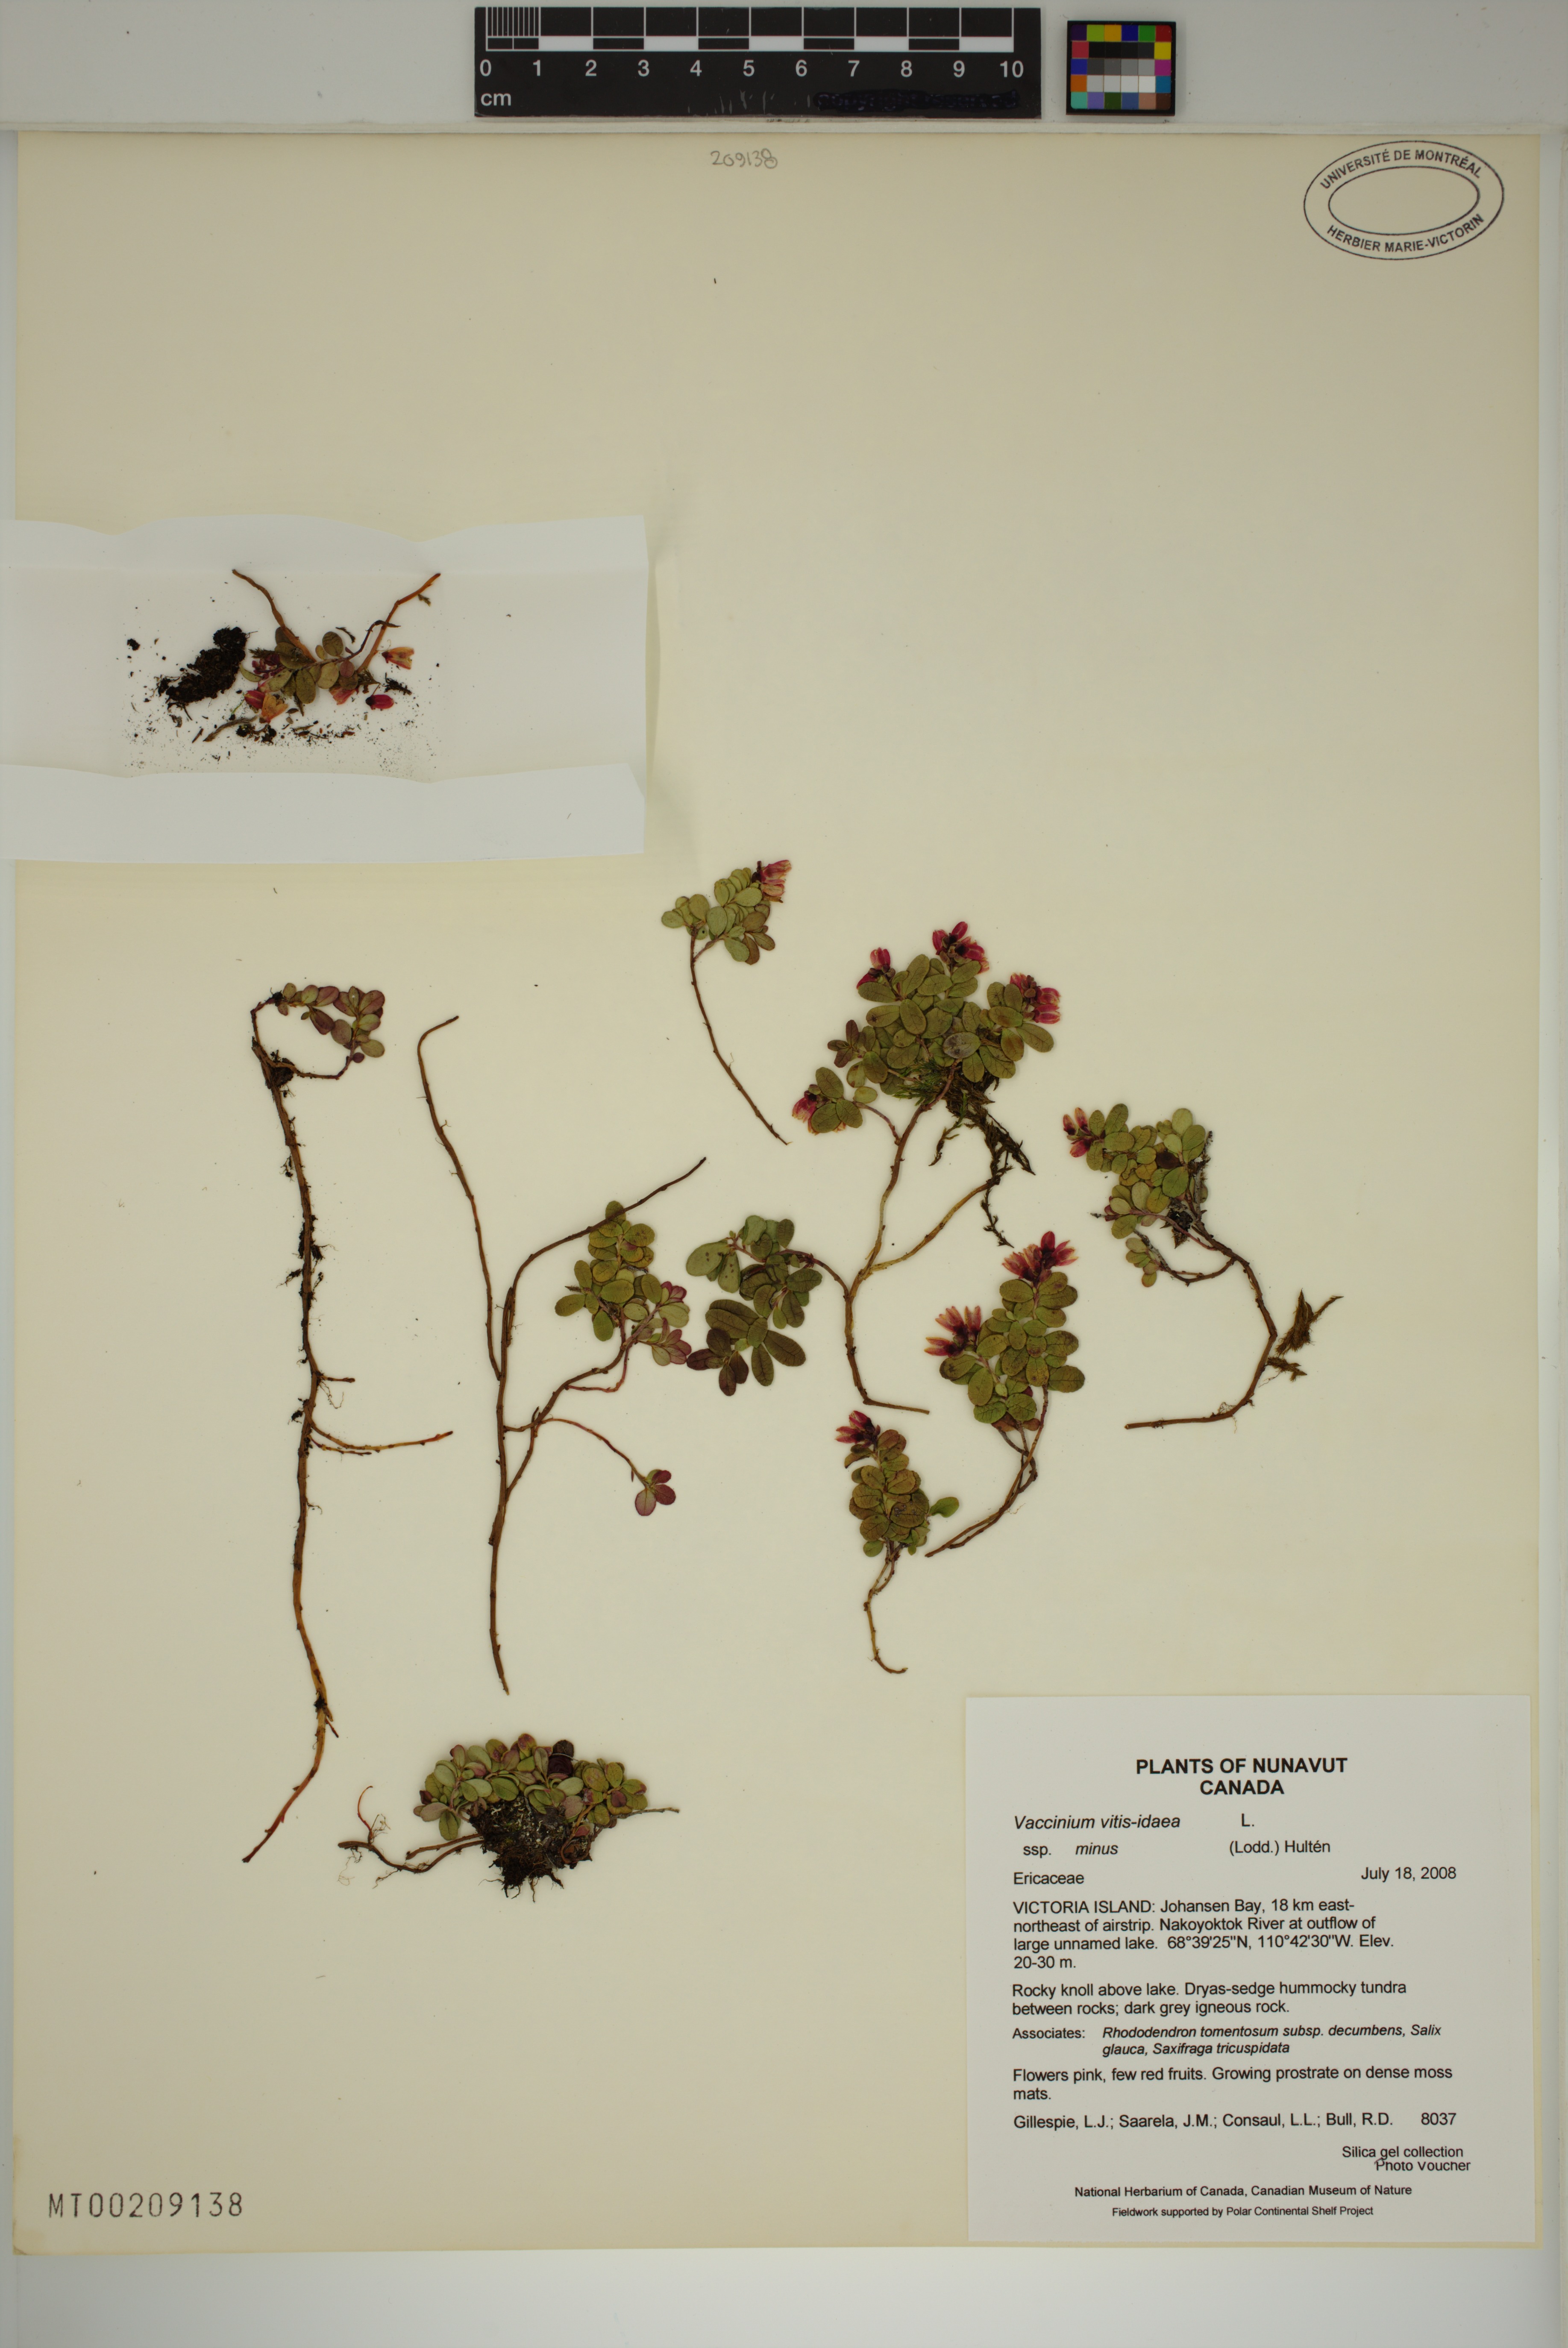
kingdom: Plantae
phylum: Tracheophyta
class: Magnoliopsida
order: Ericales
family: Ericaceae
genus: Vaccinium
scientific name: Vaccinium vitis-idaea
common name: Cowberry
